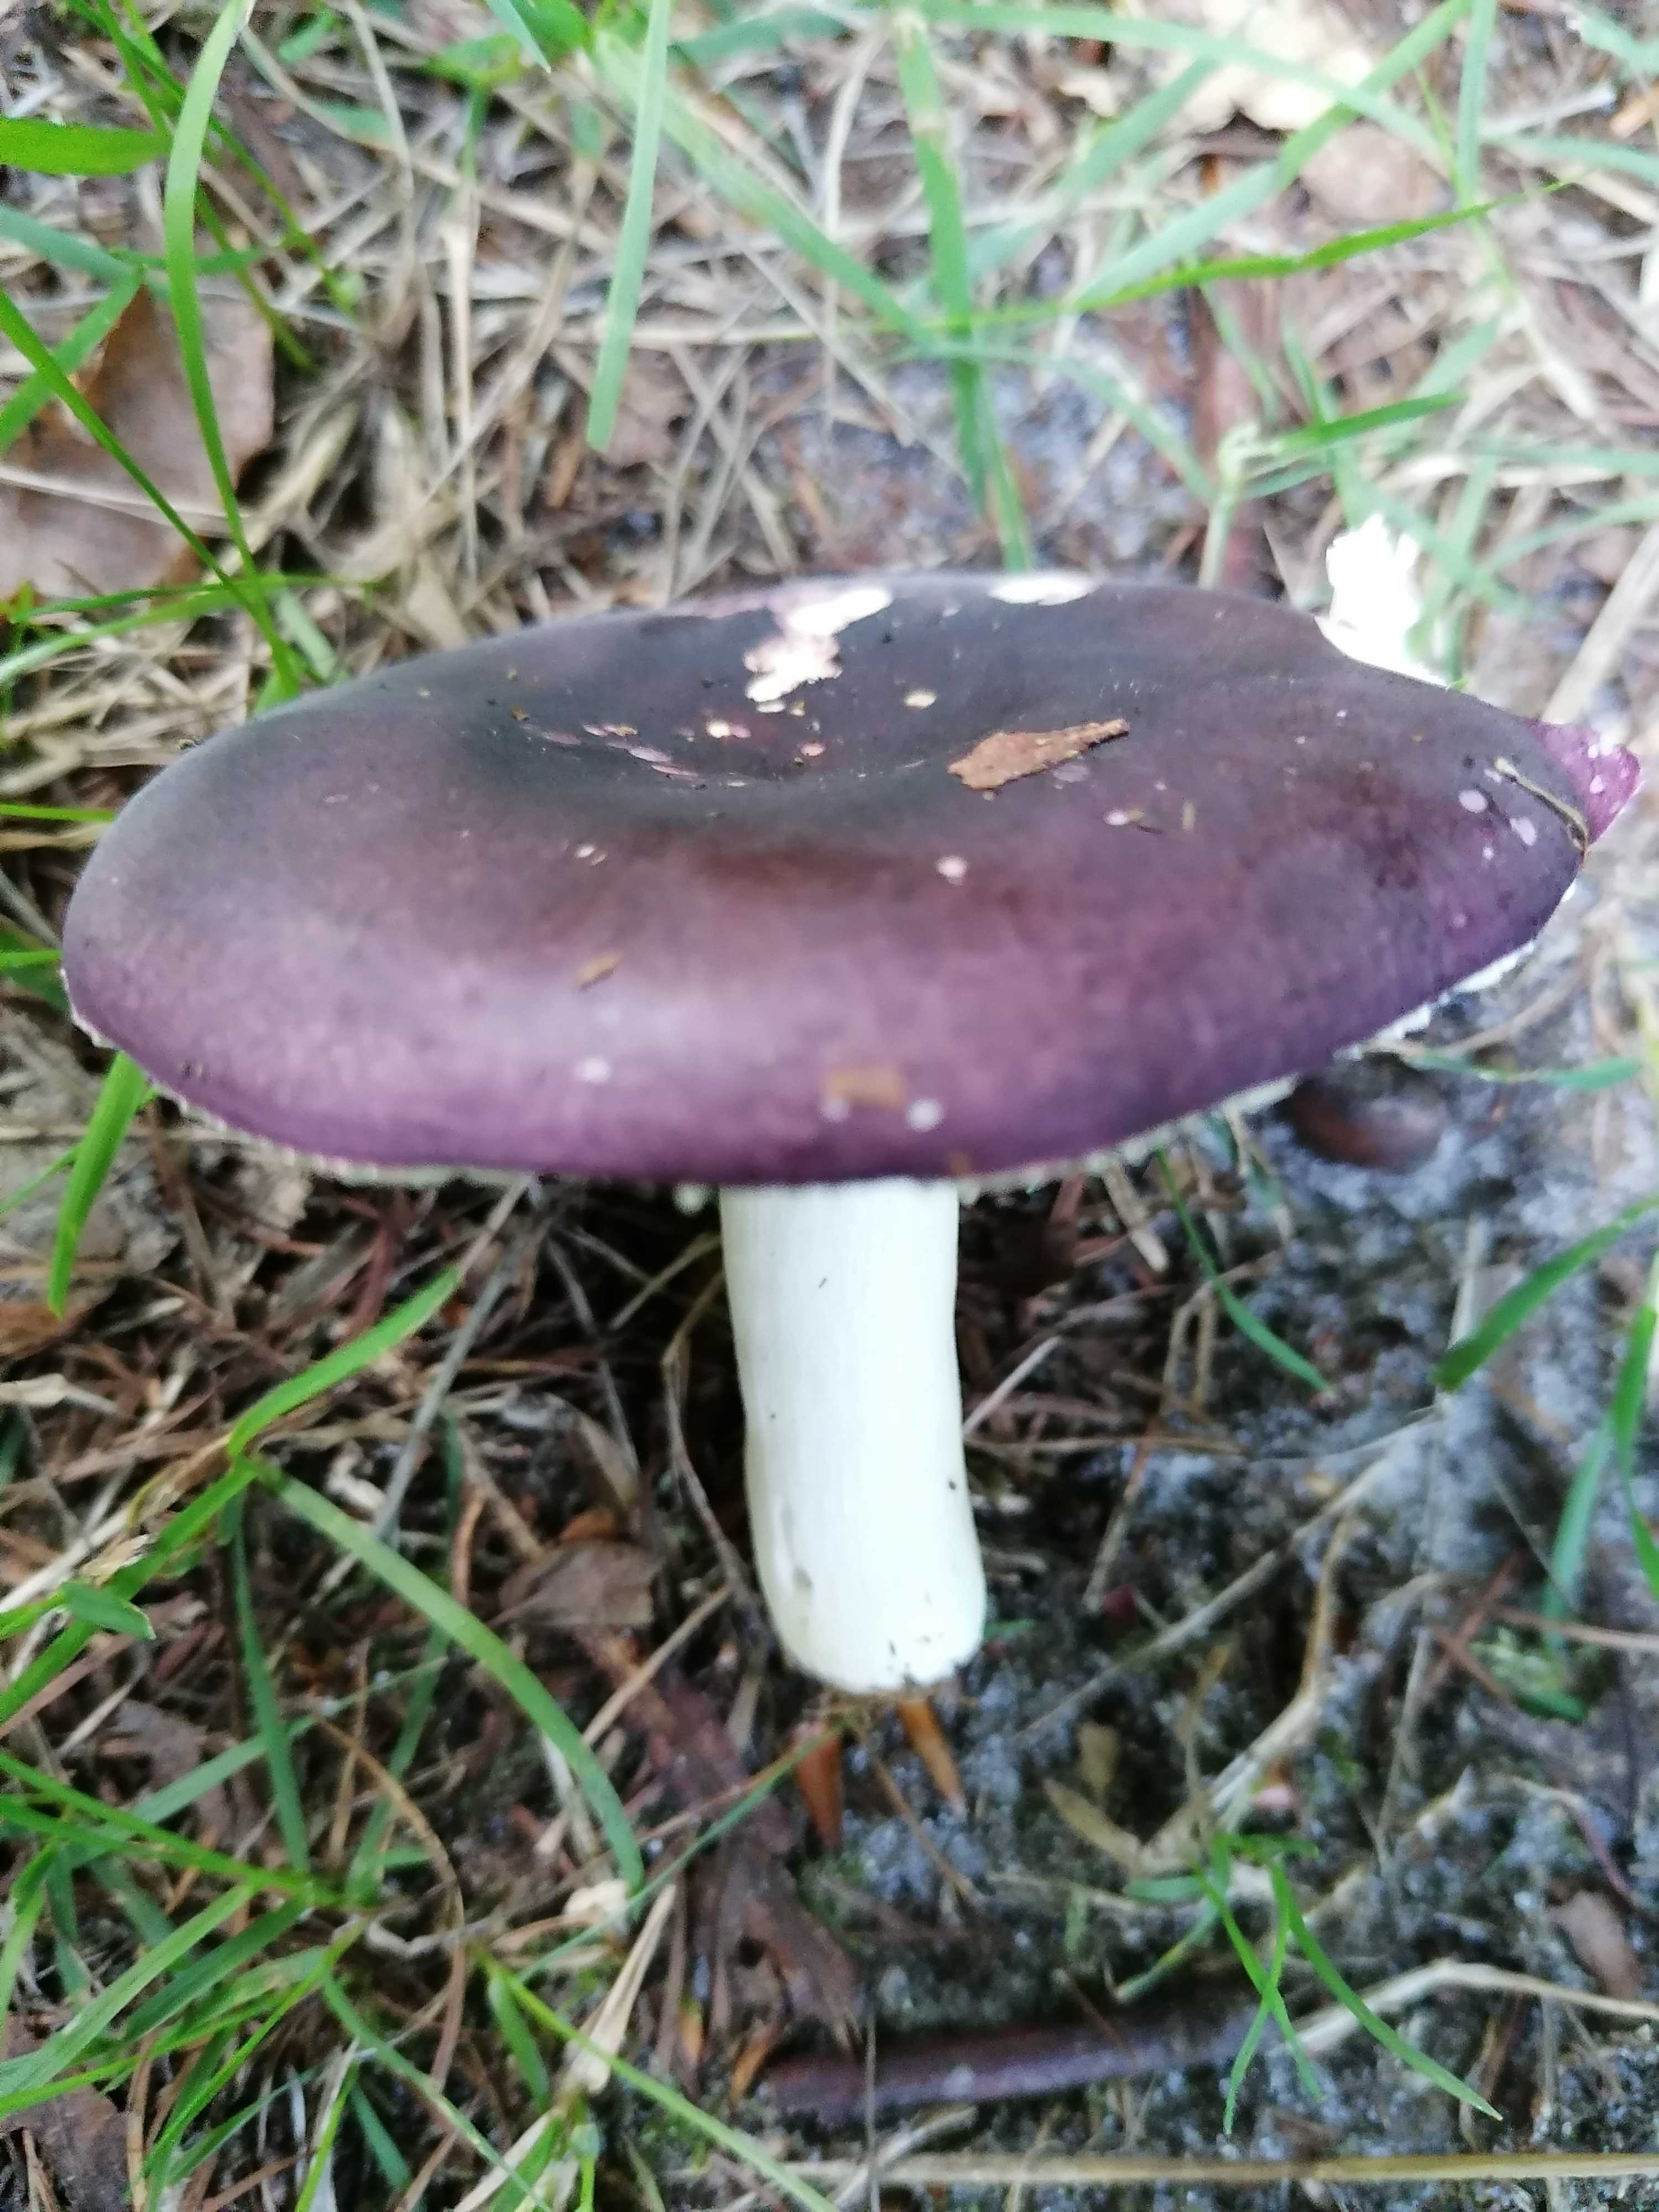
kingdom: Fungi
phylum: Basidiomycota
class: Agaricomycetes
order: Russulales
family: Russulaceae
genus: Russula
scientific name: Russula
